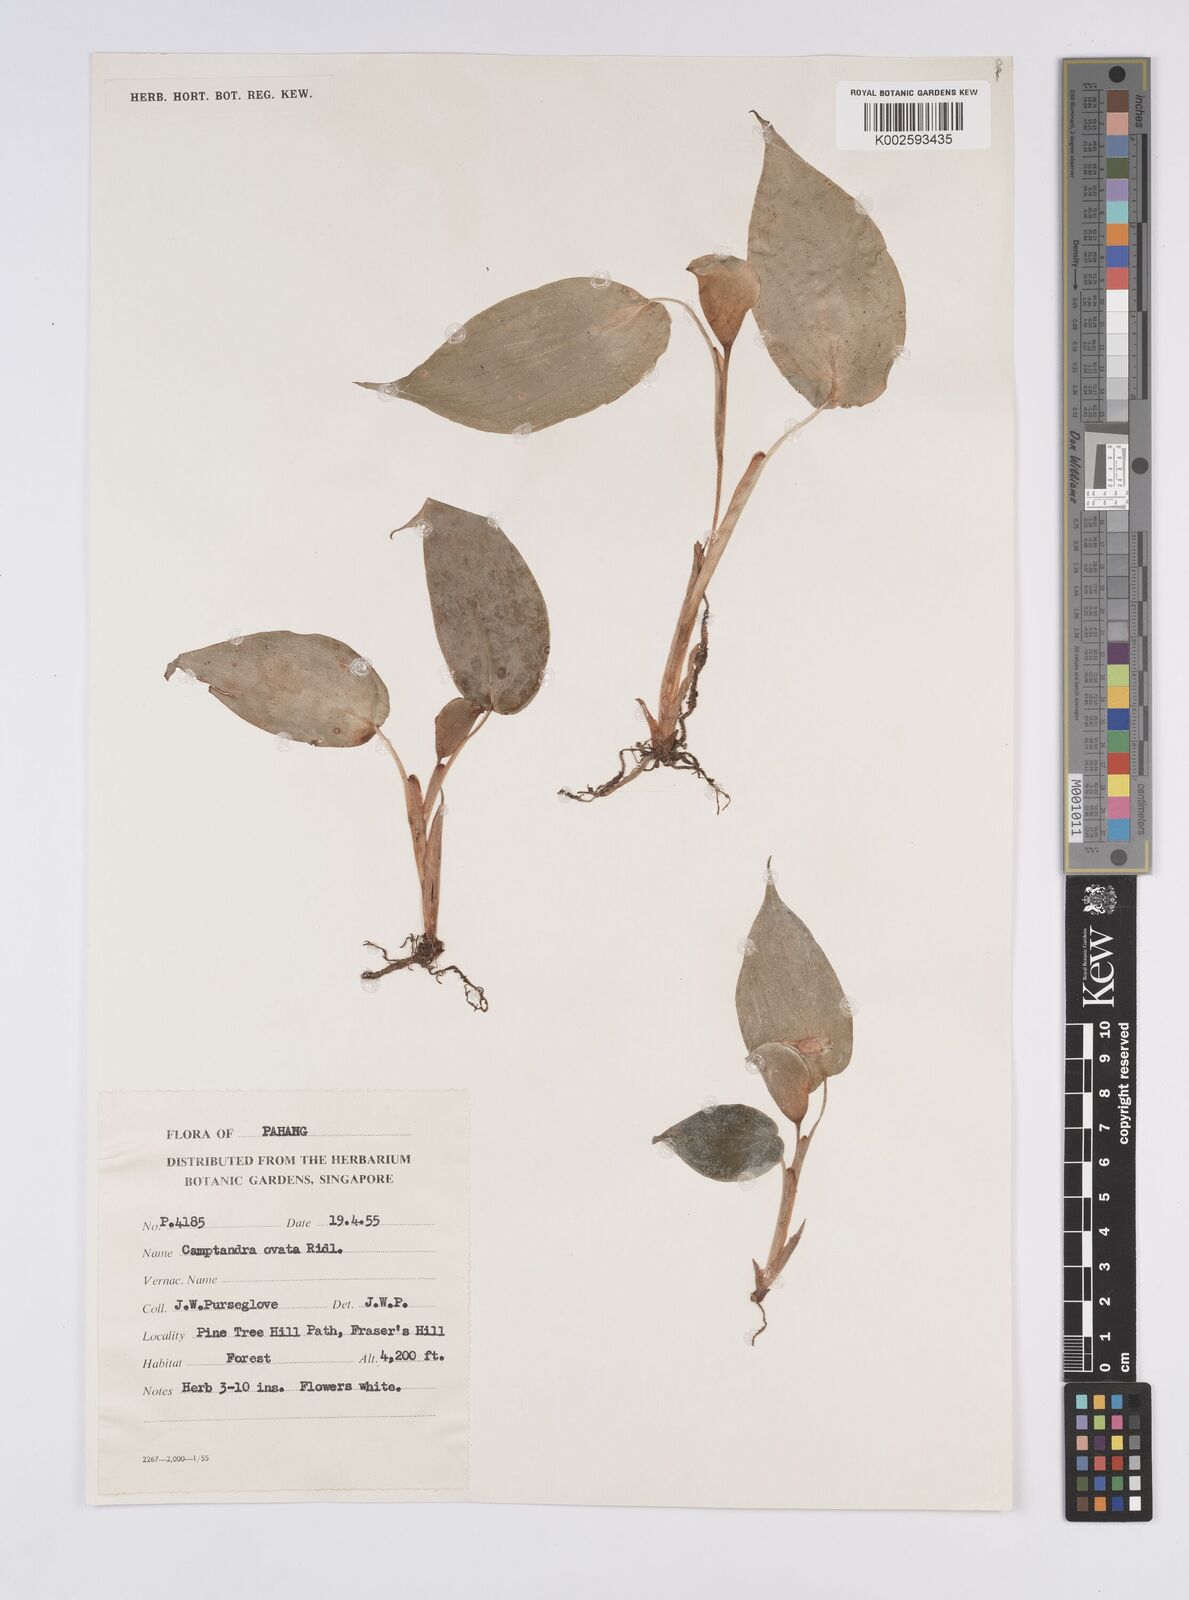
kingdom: Plantae
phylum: Tracheophyta
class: Liliopsida
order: Zingiberales
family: Zingiberaceae
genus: Camptandra
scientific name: Camptandra ovata
